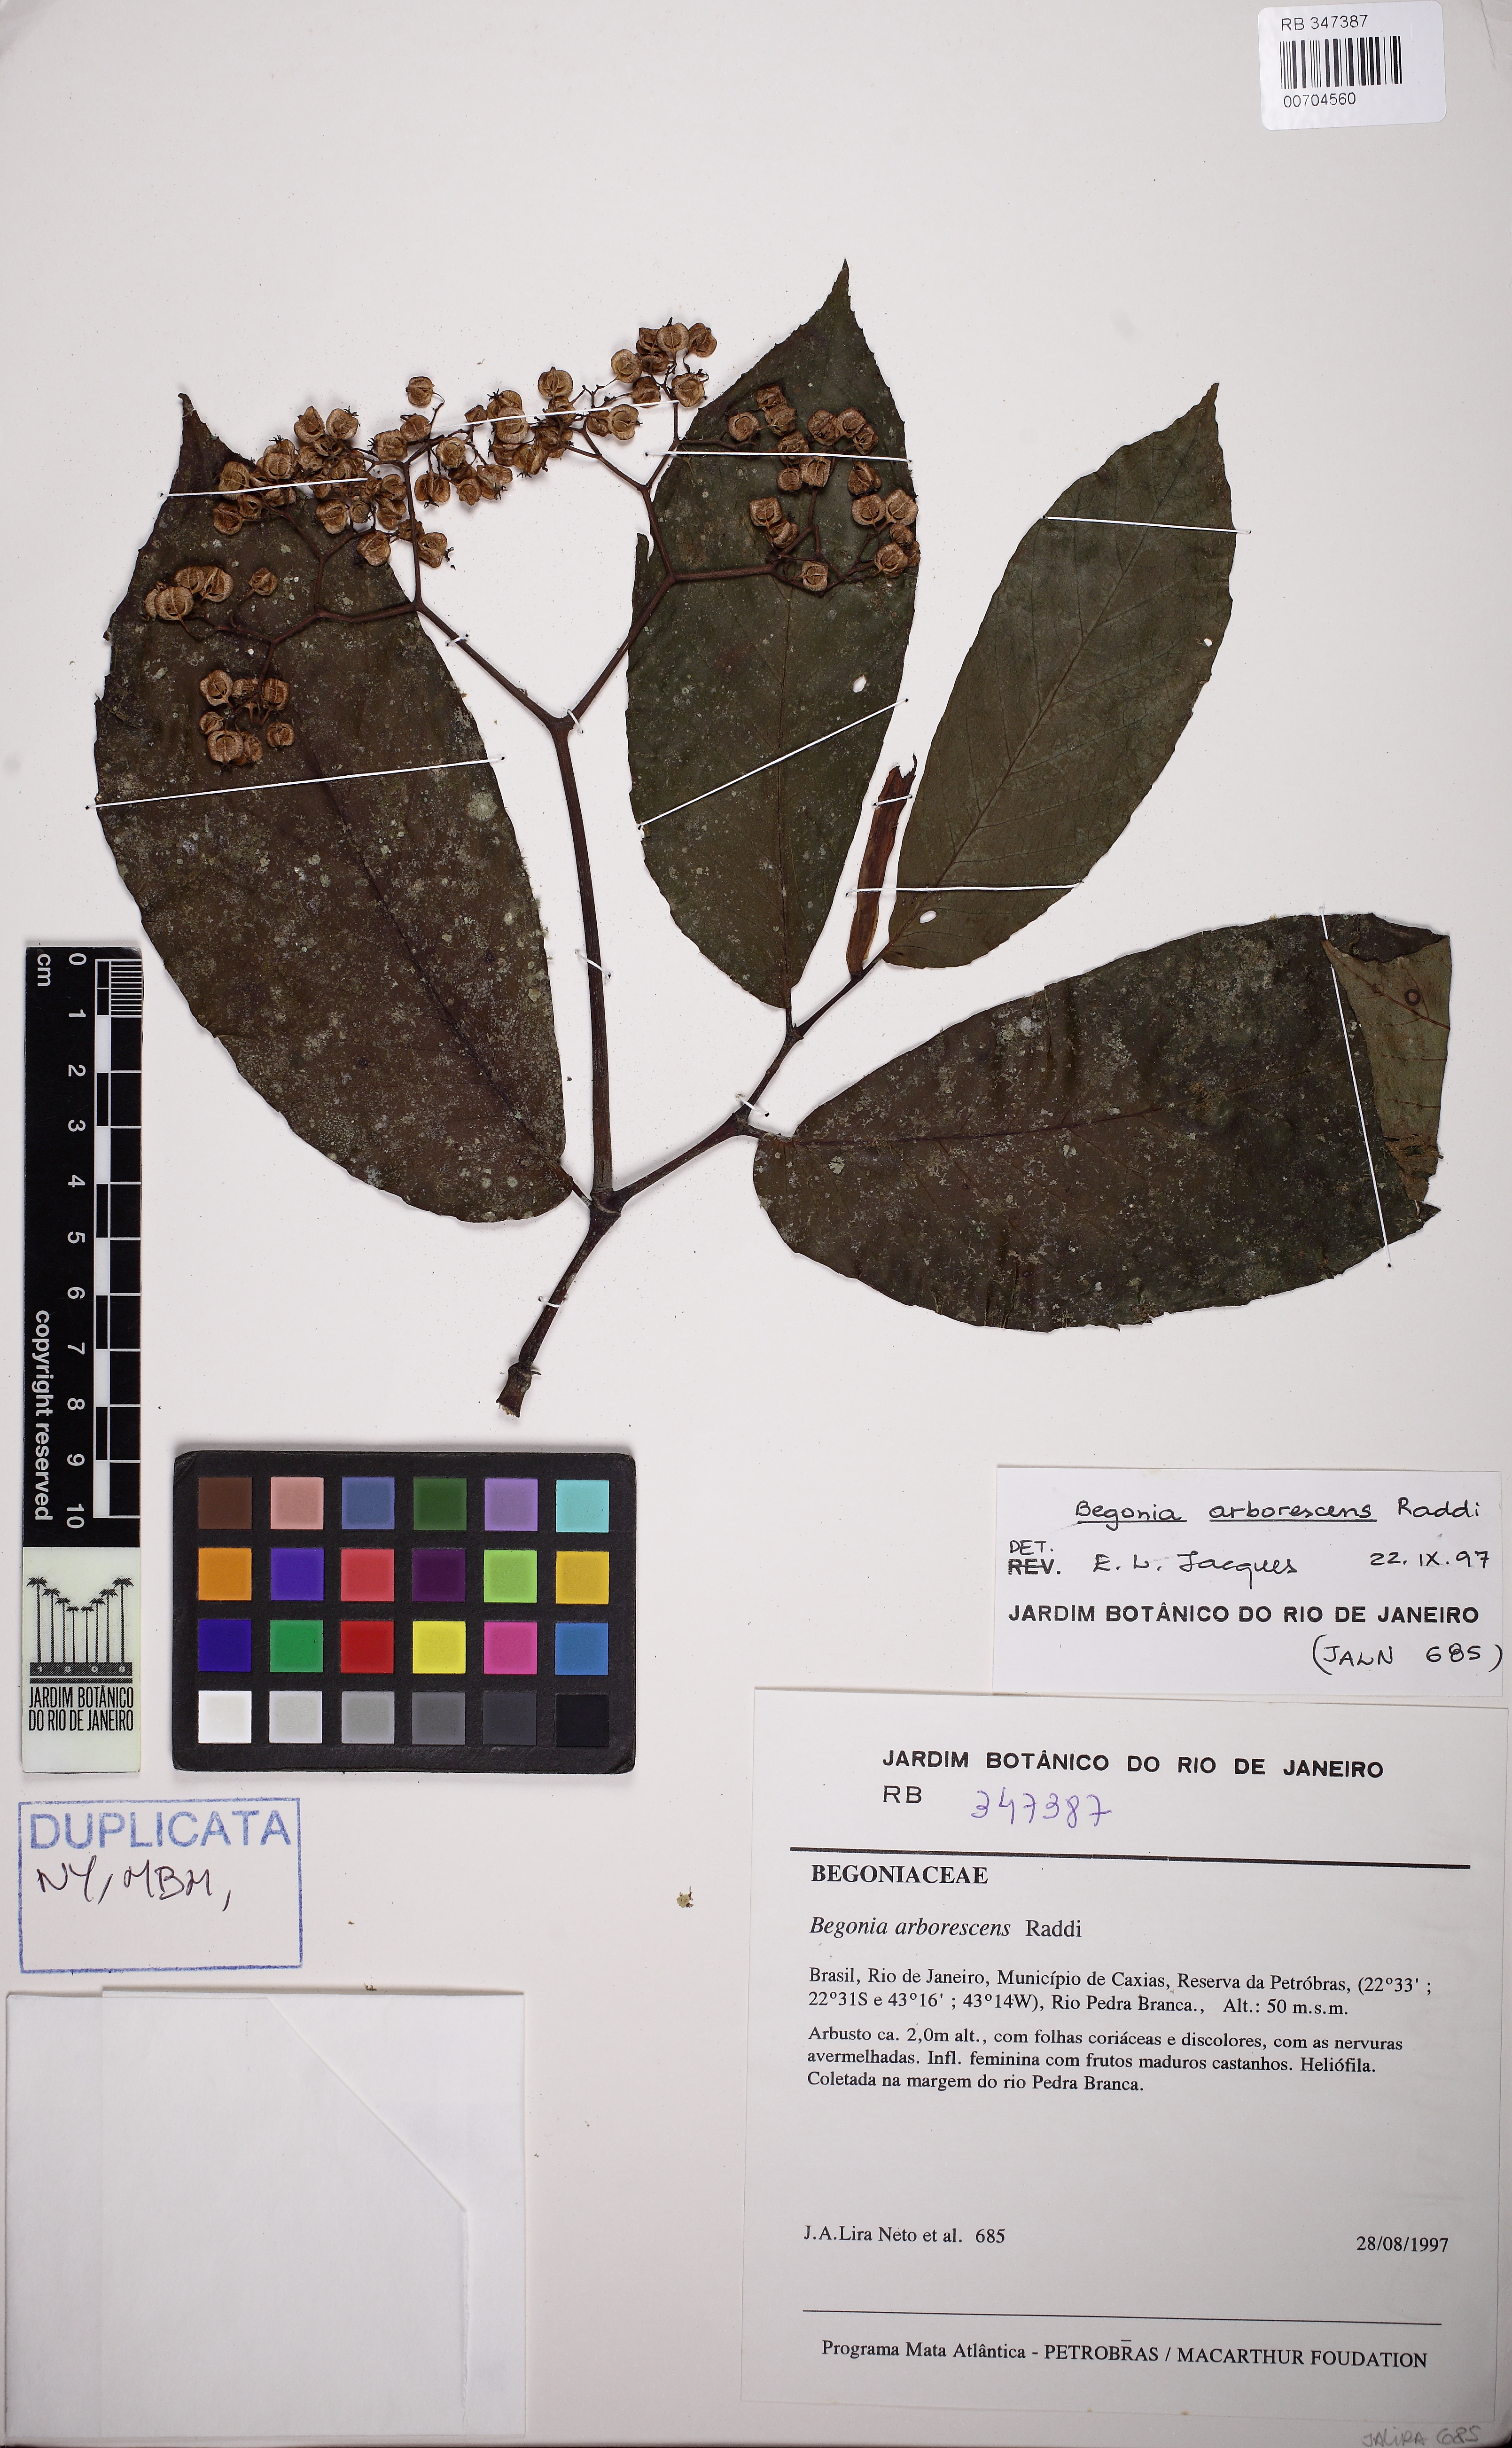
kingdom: Plantae
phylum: Tracheophyta
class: Magnoliopsida
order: Cucurbitales
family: Begoniaceae
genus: Begonia
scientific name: Begonia arborescens
